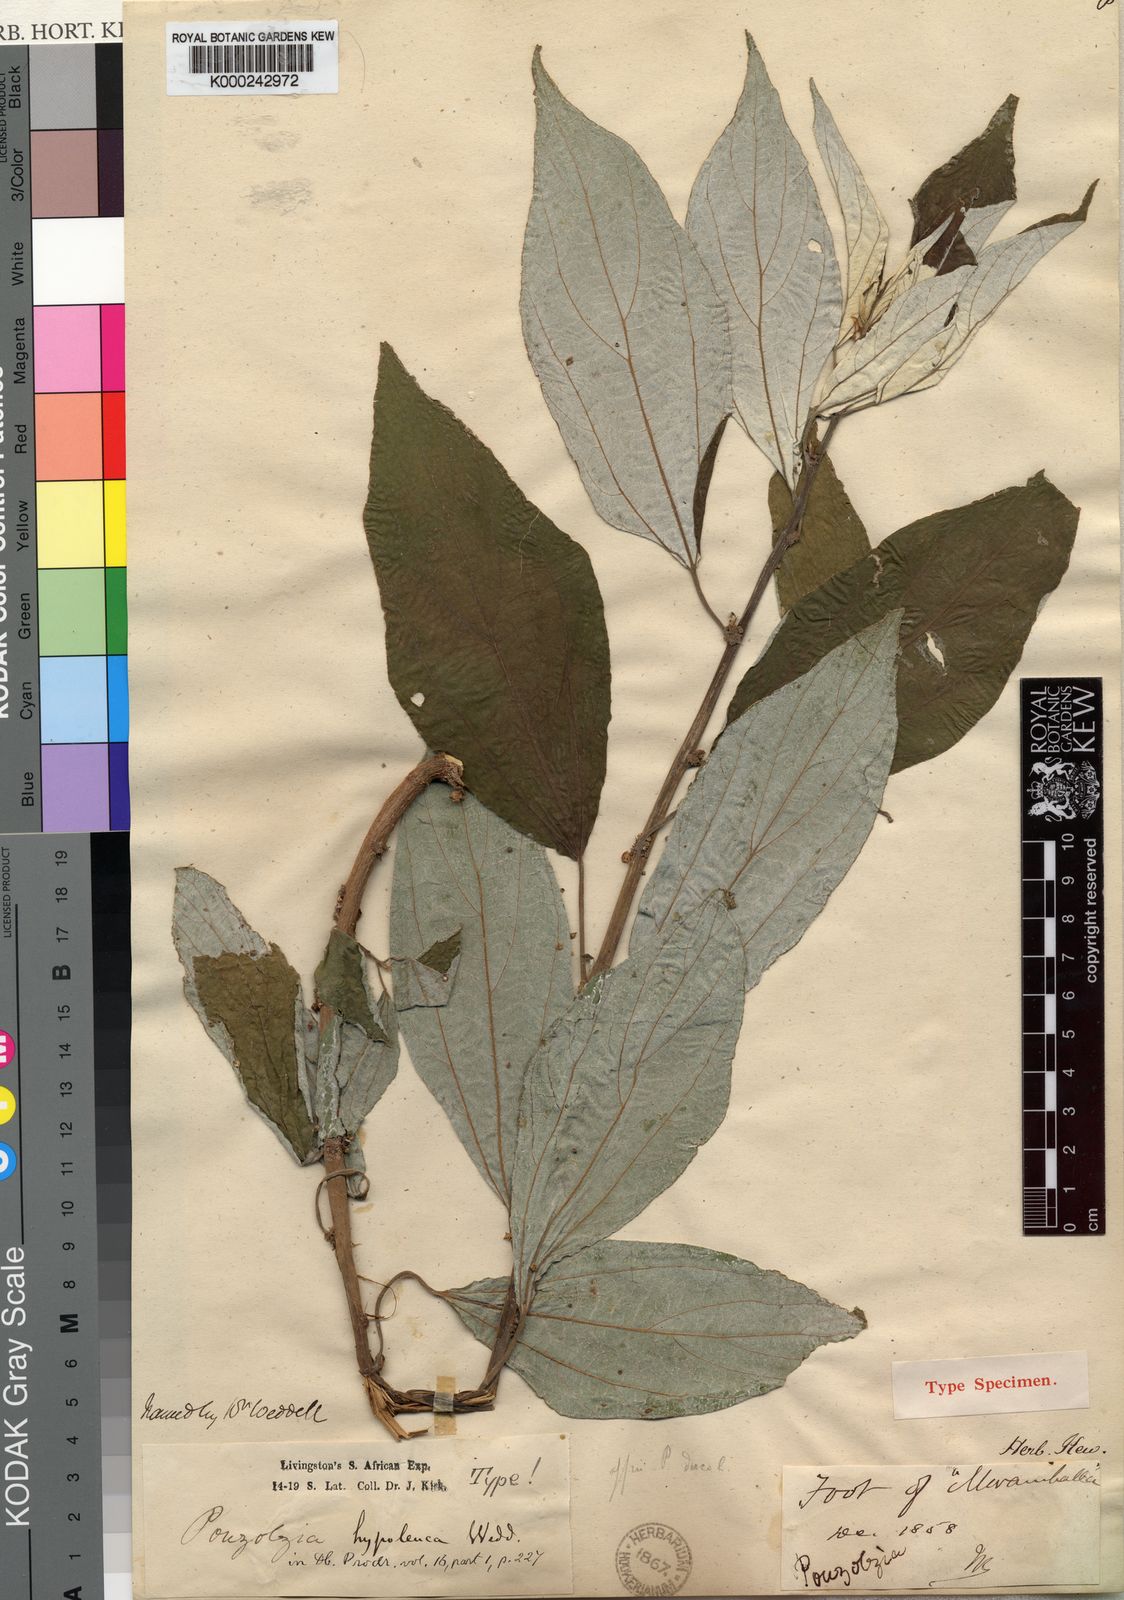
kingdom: Plantae
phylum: Tracheophyta
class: Magnoliopsida
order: Rosales
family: Urticaceae
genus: Pouzolzia
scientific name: Pouzolzia mixta
